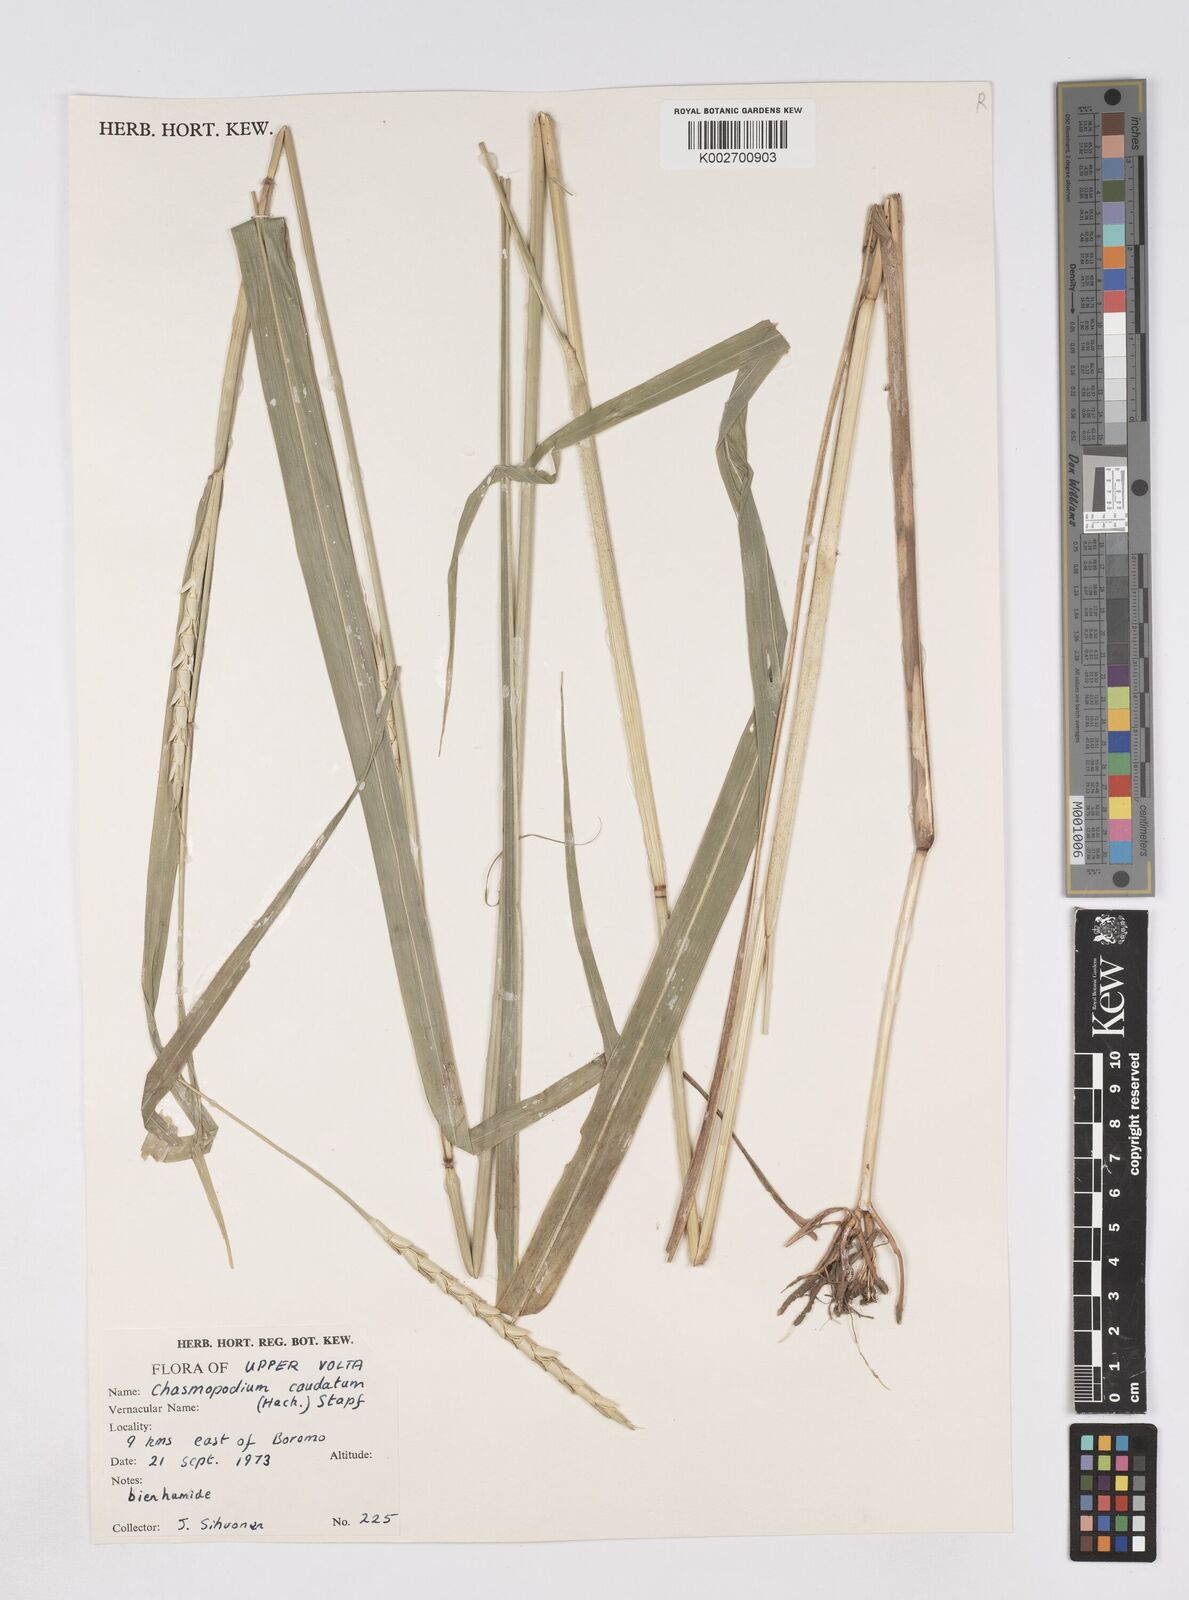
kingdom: Plantae
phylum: Tracheophyta
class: Liliopsida
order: Poales
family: Poaceae
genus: Chasmopodium
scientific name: Chasmopodium caudatum
